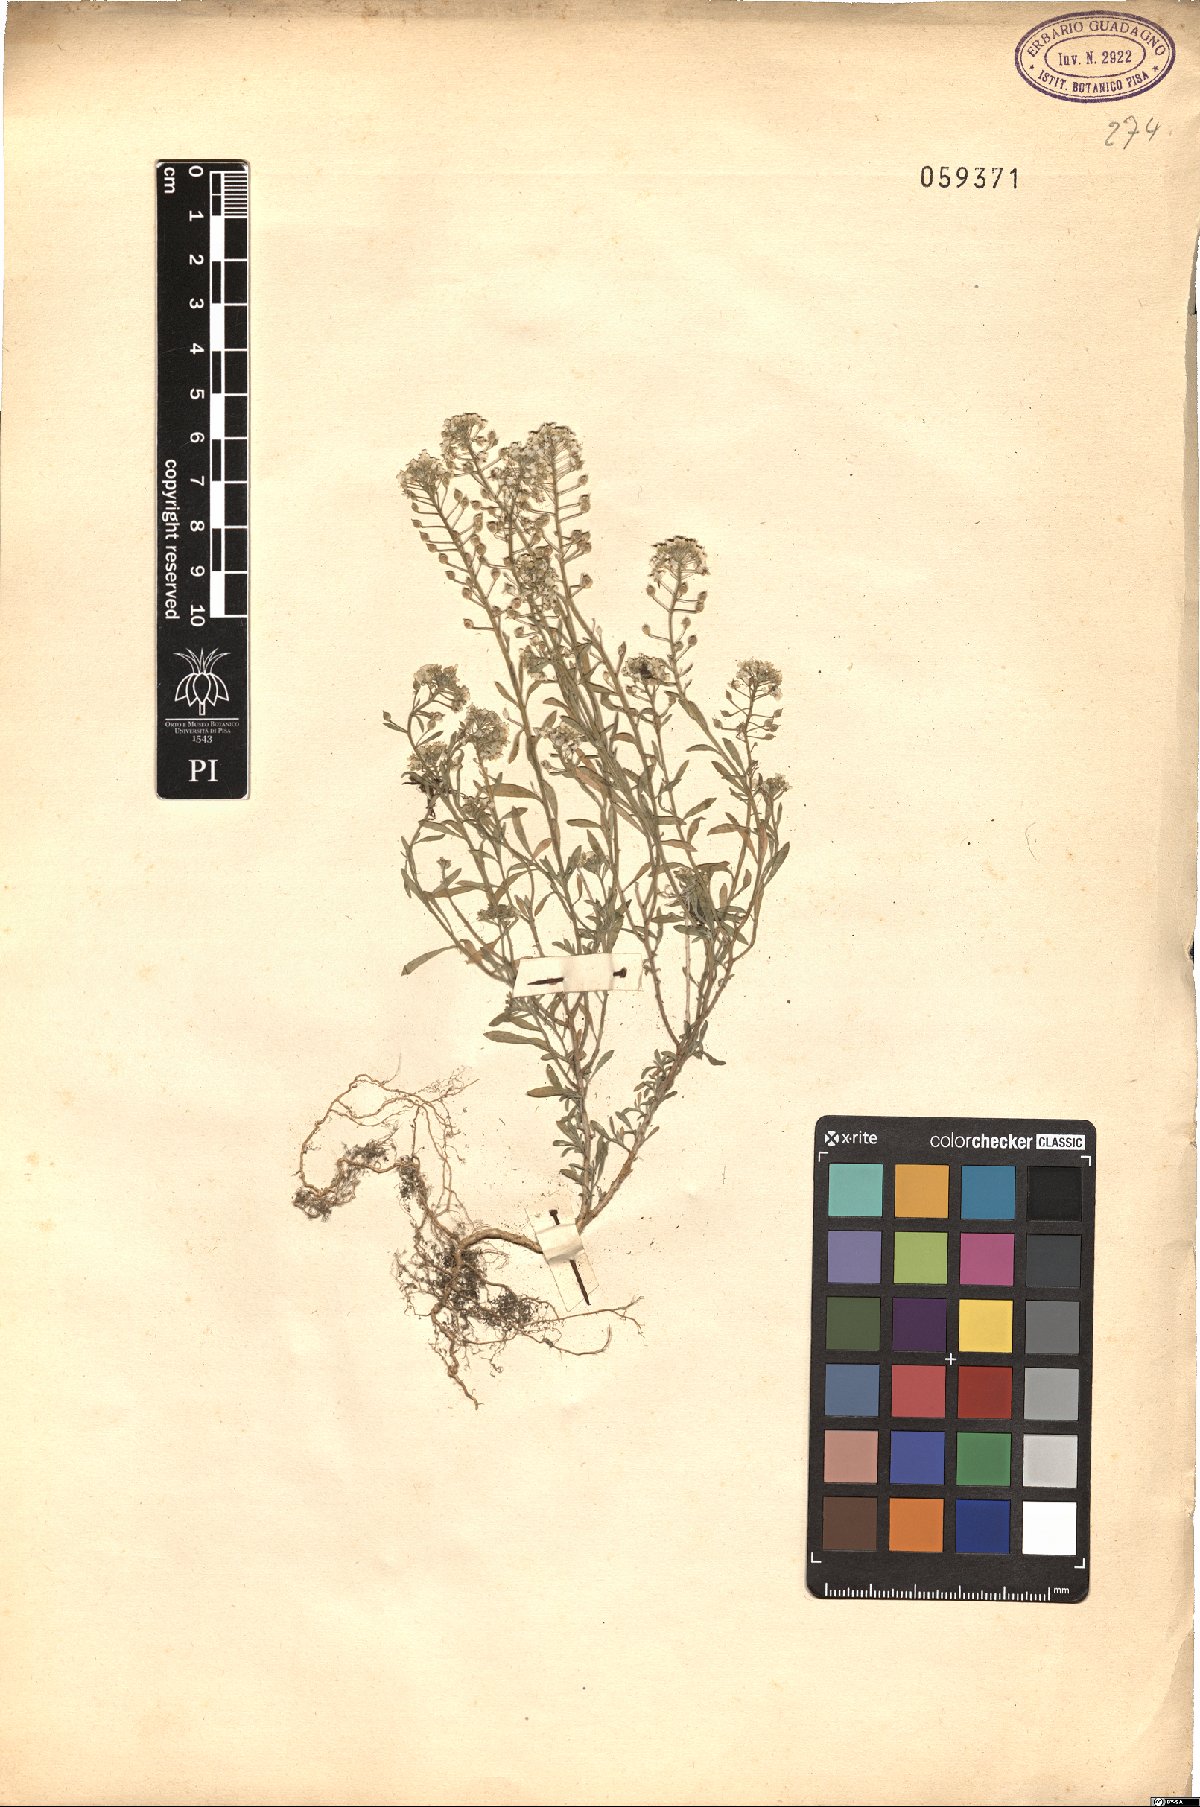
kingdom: Plantae
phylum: Tracheophyta
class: Magnoliopsida
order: Brassicales
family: Brassicaceae
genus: Lepidium
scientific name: Lepidium graminifolium
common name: Tall pepperwort
